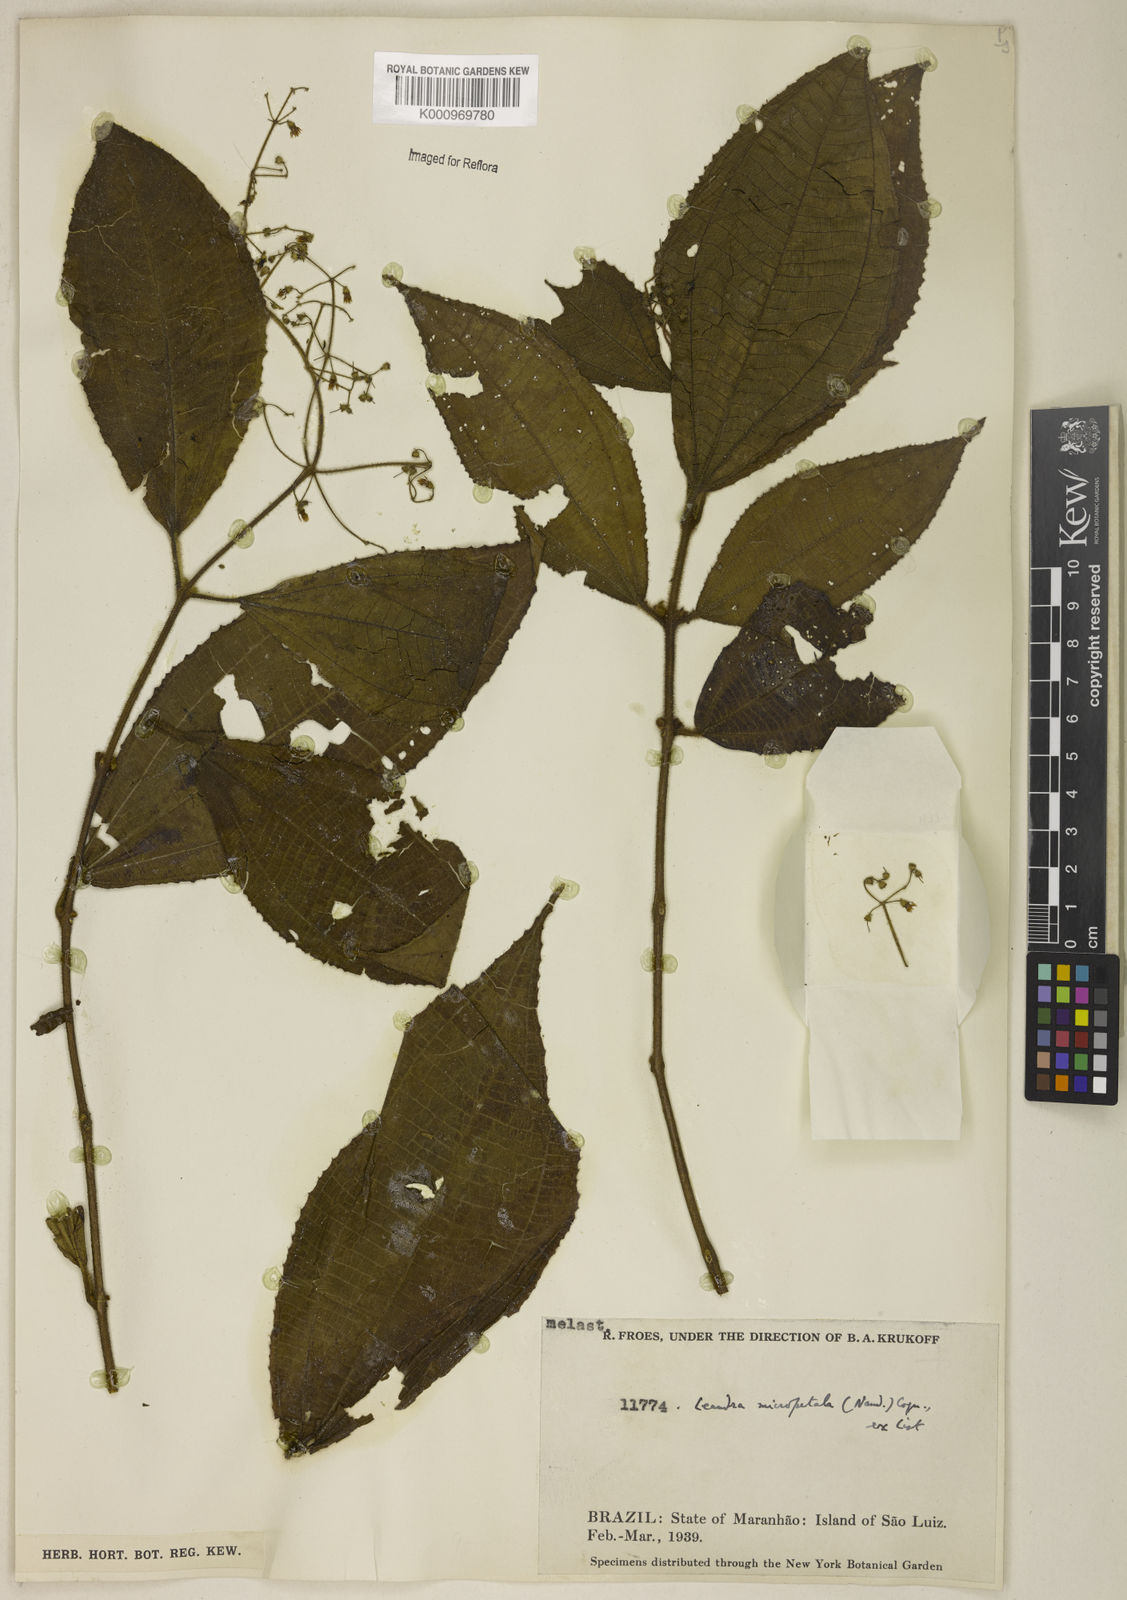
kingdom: Plantae
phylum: Tracheophyta
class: Magnoliopsida
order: Myrtales
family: Melastomataceae
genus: Miconia
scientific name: Miconia nanopetala
